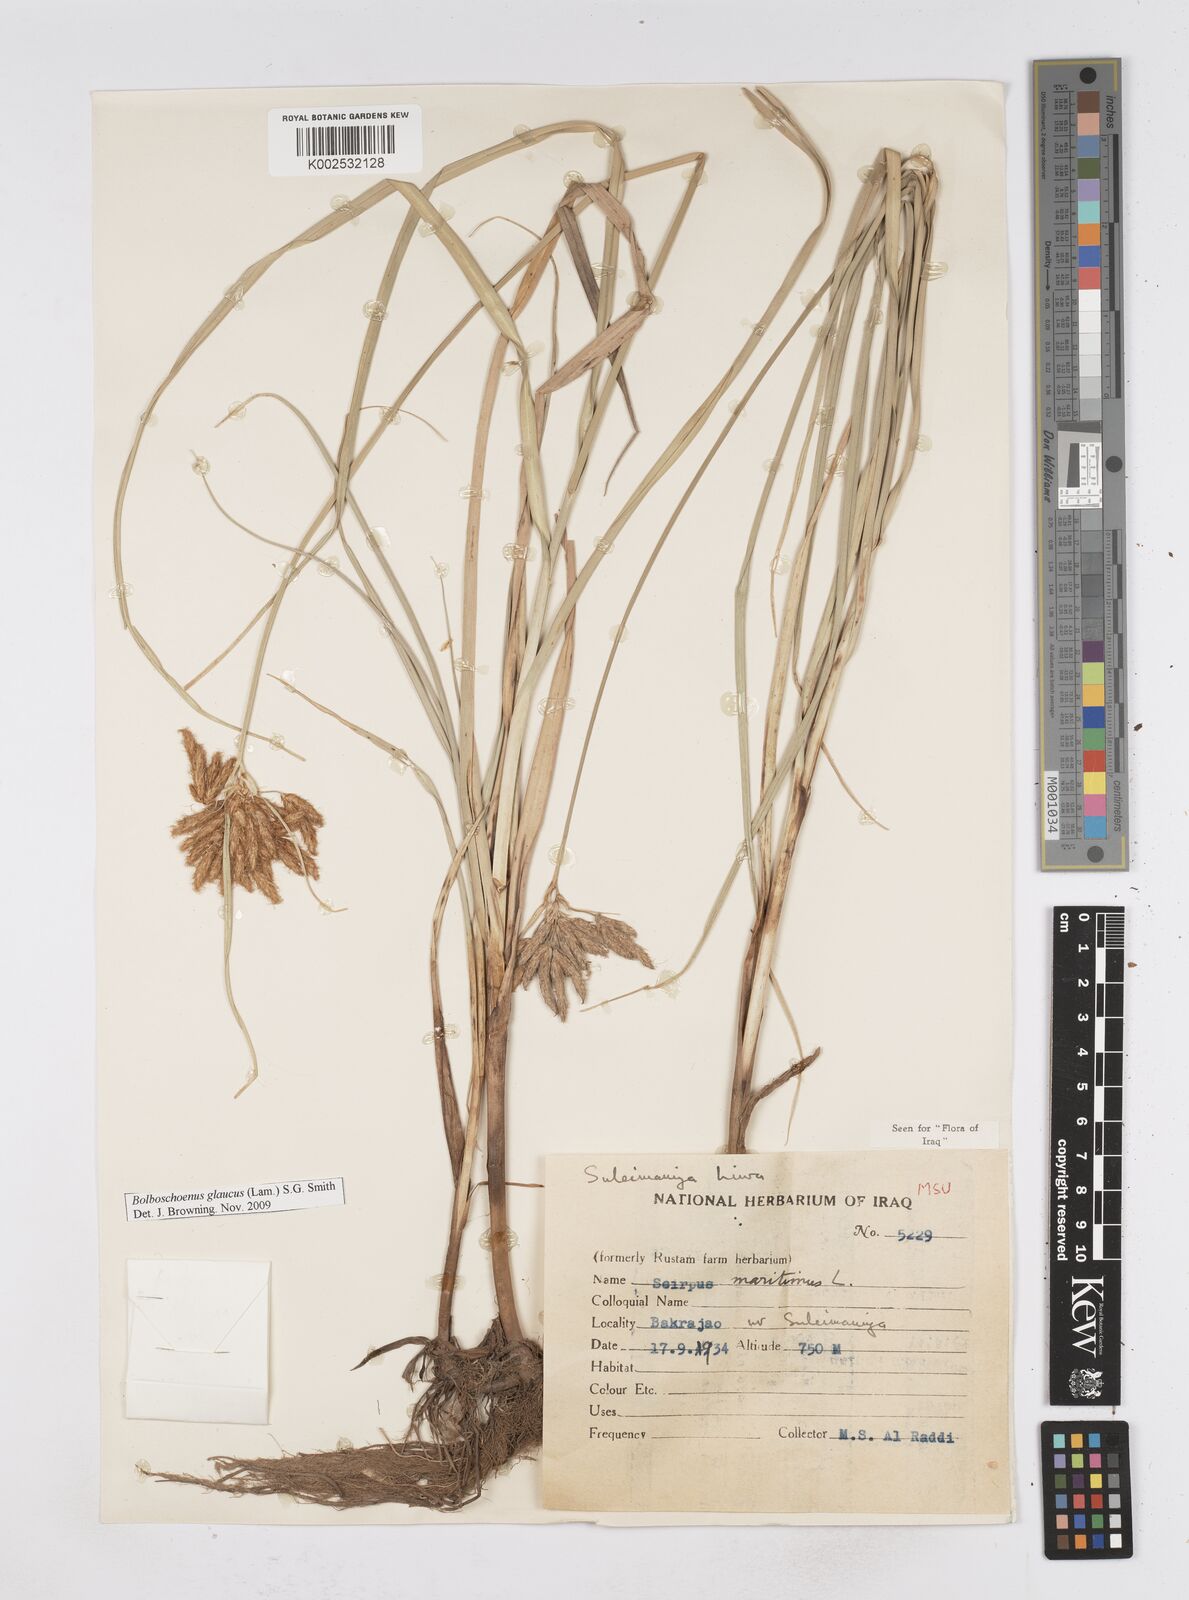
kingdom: Plantae
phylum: Tracheophyta
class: Liliopsida
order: Poales
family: Cyperaceae
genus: Bolboschoenus
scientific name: Bolboschoenus maritimus
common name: Sea club-rush
